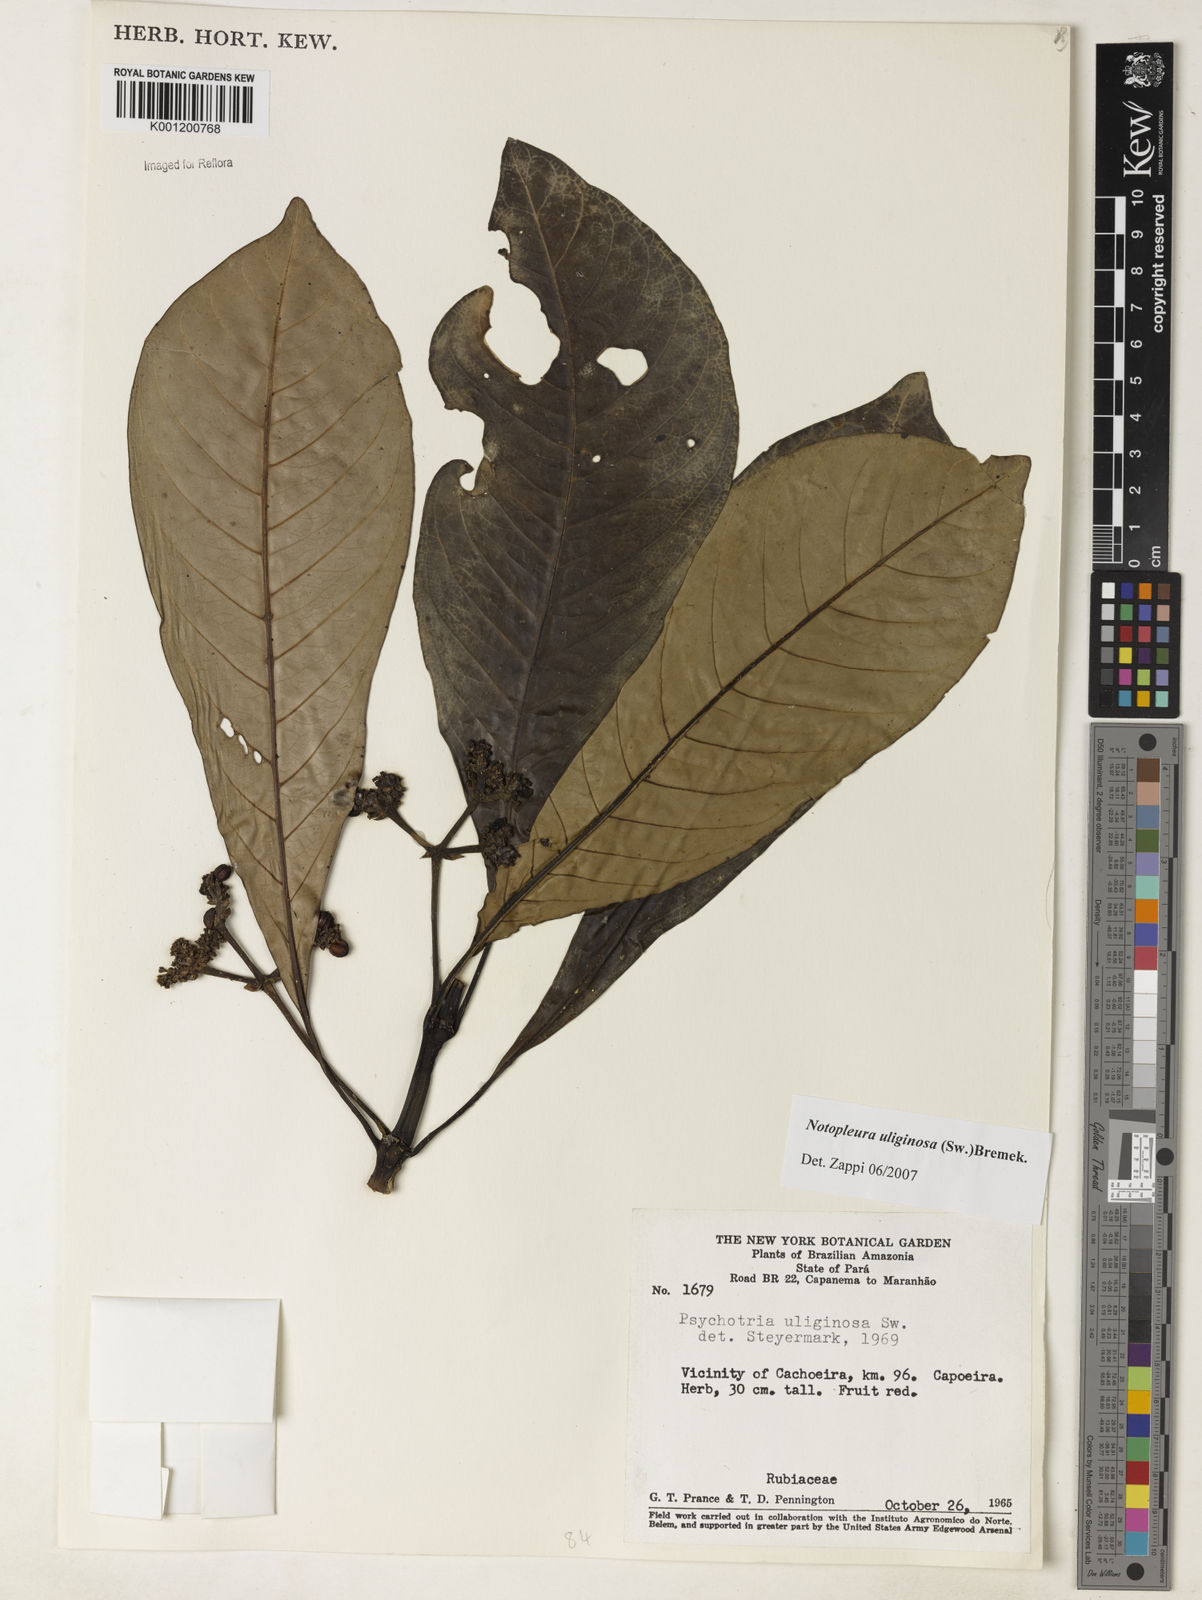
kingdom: Plantae
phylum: Tracheophyta
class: Magnoliopsida
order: Gentianales
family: Rubiaceae
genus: Notopleura
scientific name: Notopleura uliginosa
